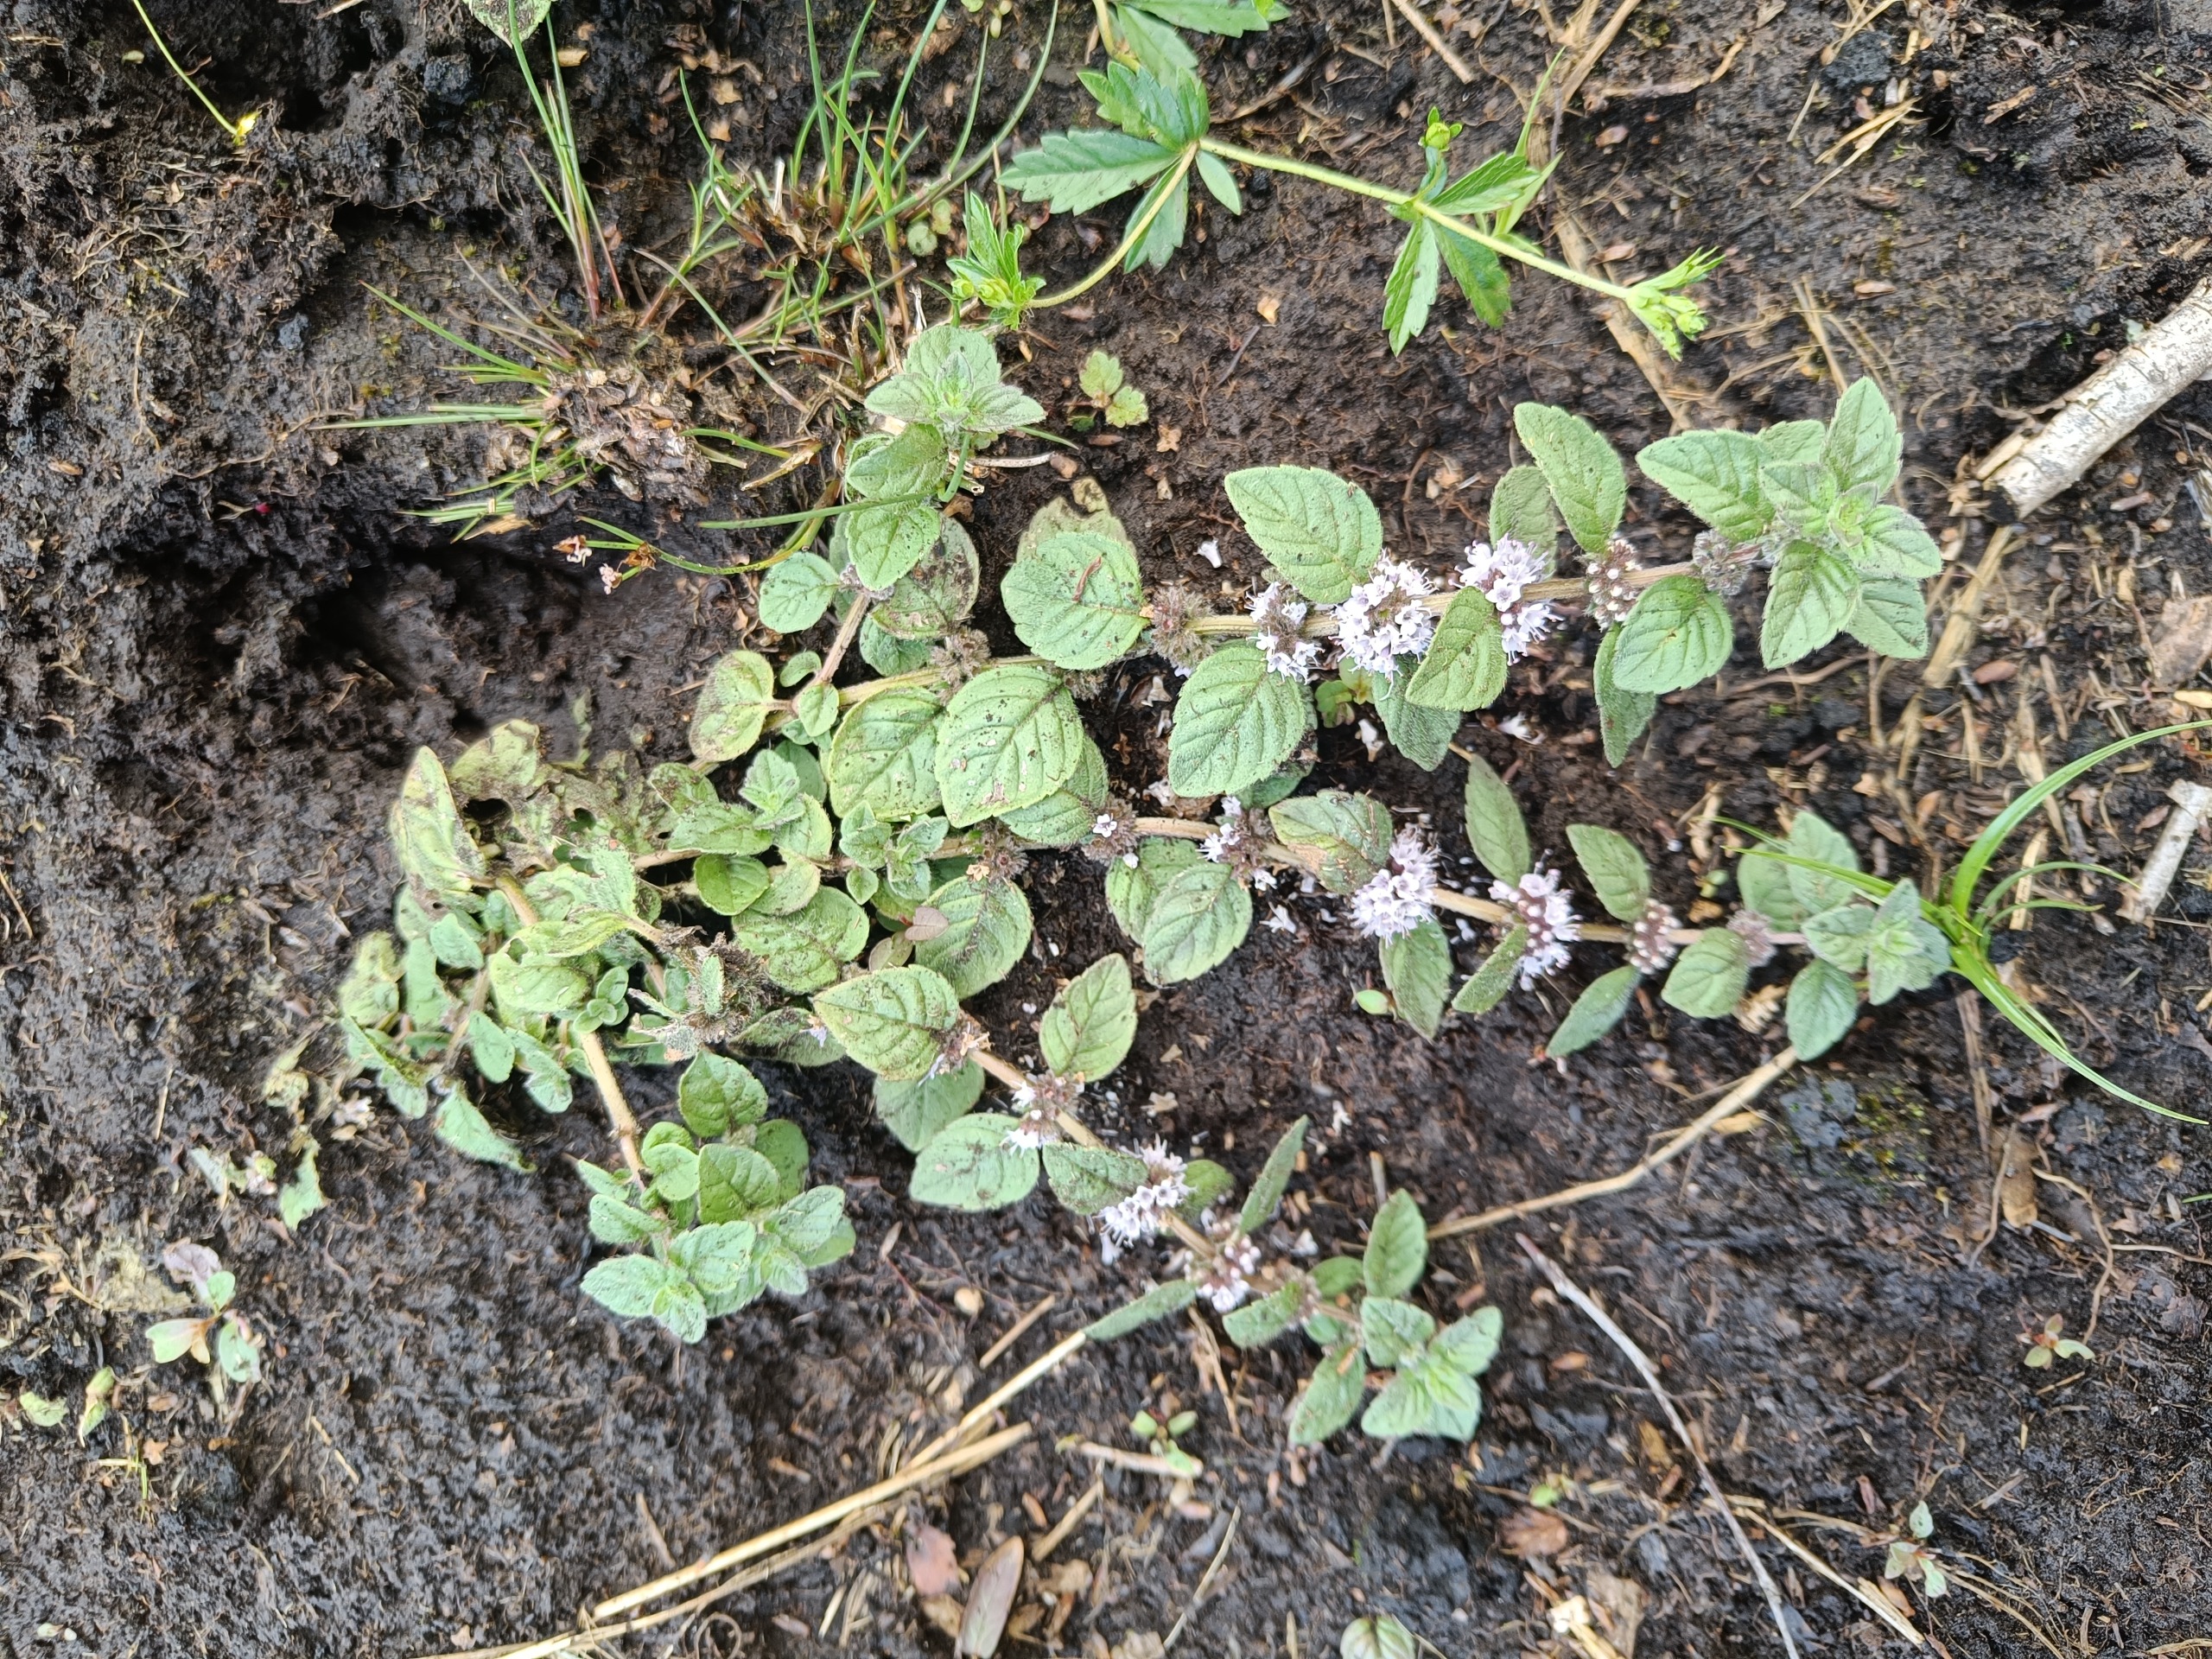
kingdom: Plantae
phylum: Tracheophyta
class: Magnoliopsida
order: Lamiales
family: Lamiaceae
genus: Mentha
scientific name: Mentha arvensis
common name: Ager-mynte
